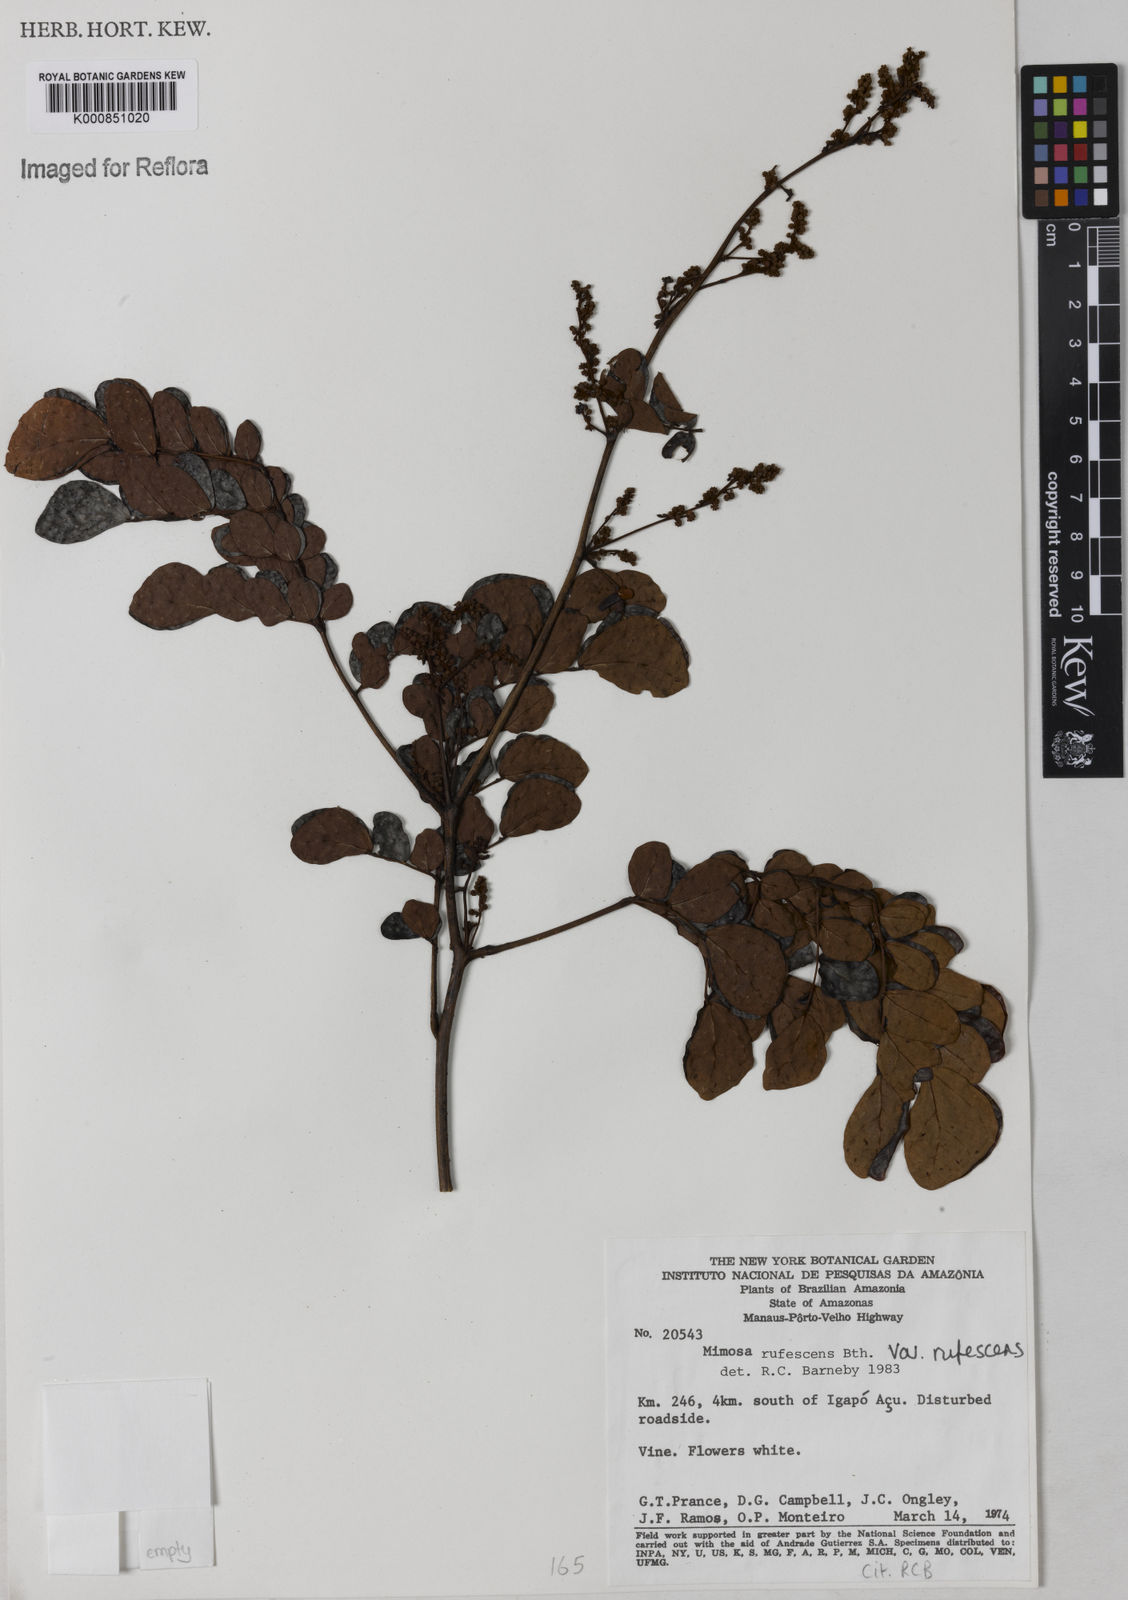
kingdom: Plantae
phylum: Tracheophyta
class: Magnoliopsida
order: Fabales
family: Fabaceae
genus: Mimosa
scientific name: Mimosa rufescens
